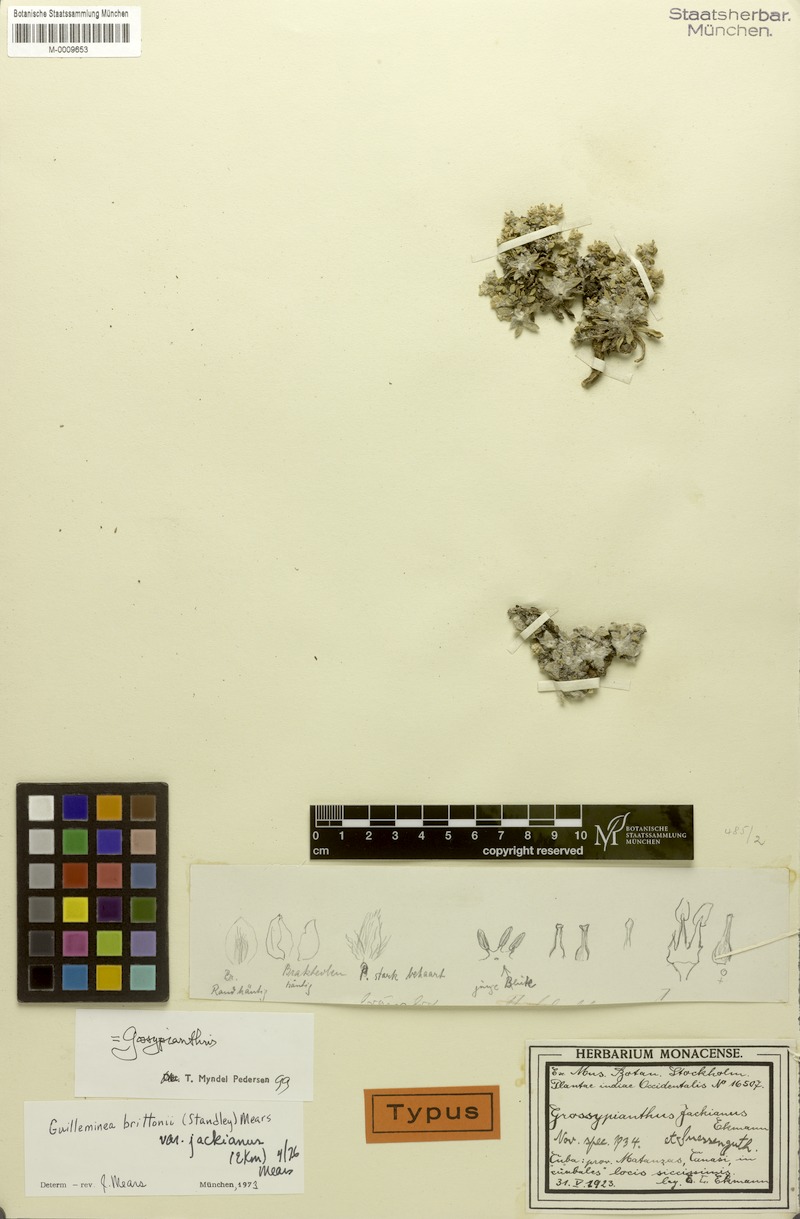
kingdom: Plantae
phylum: Tracheophyta
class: Magnoliopsida
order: Caryophyllales
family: Amaranthaceae
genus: Gomphrena
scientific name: Gomphrena brittonii
